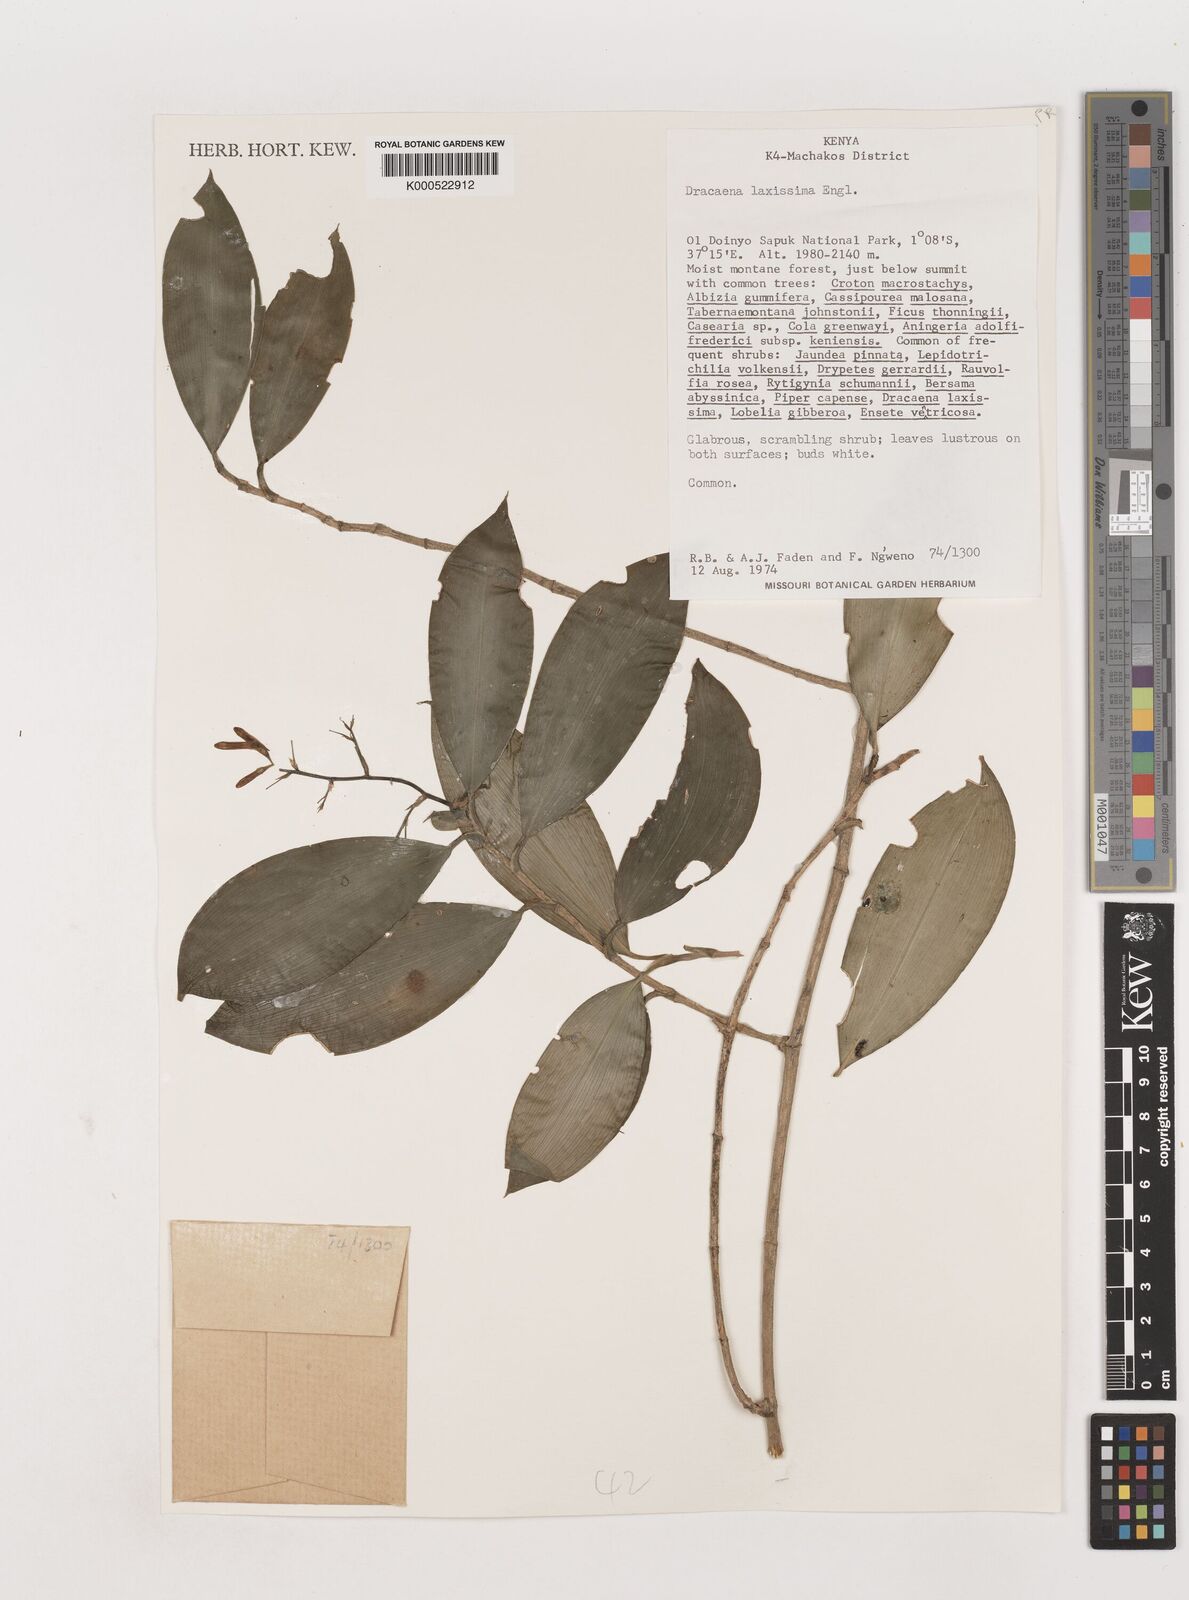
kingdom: Plantae
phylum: Tracheophyta
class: Liliopsida
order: Asparagales
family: Asparagaceae
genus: Dracaena
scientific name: Dracaena laxissima
